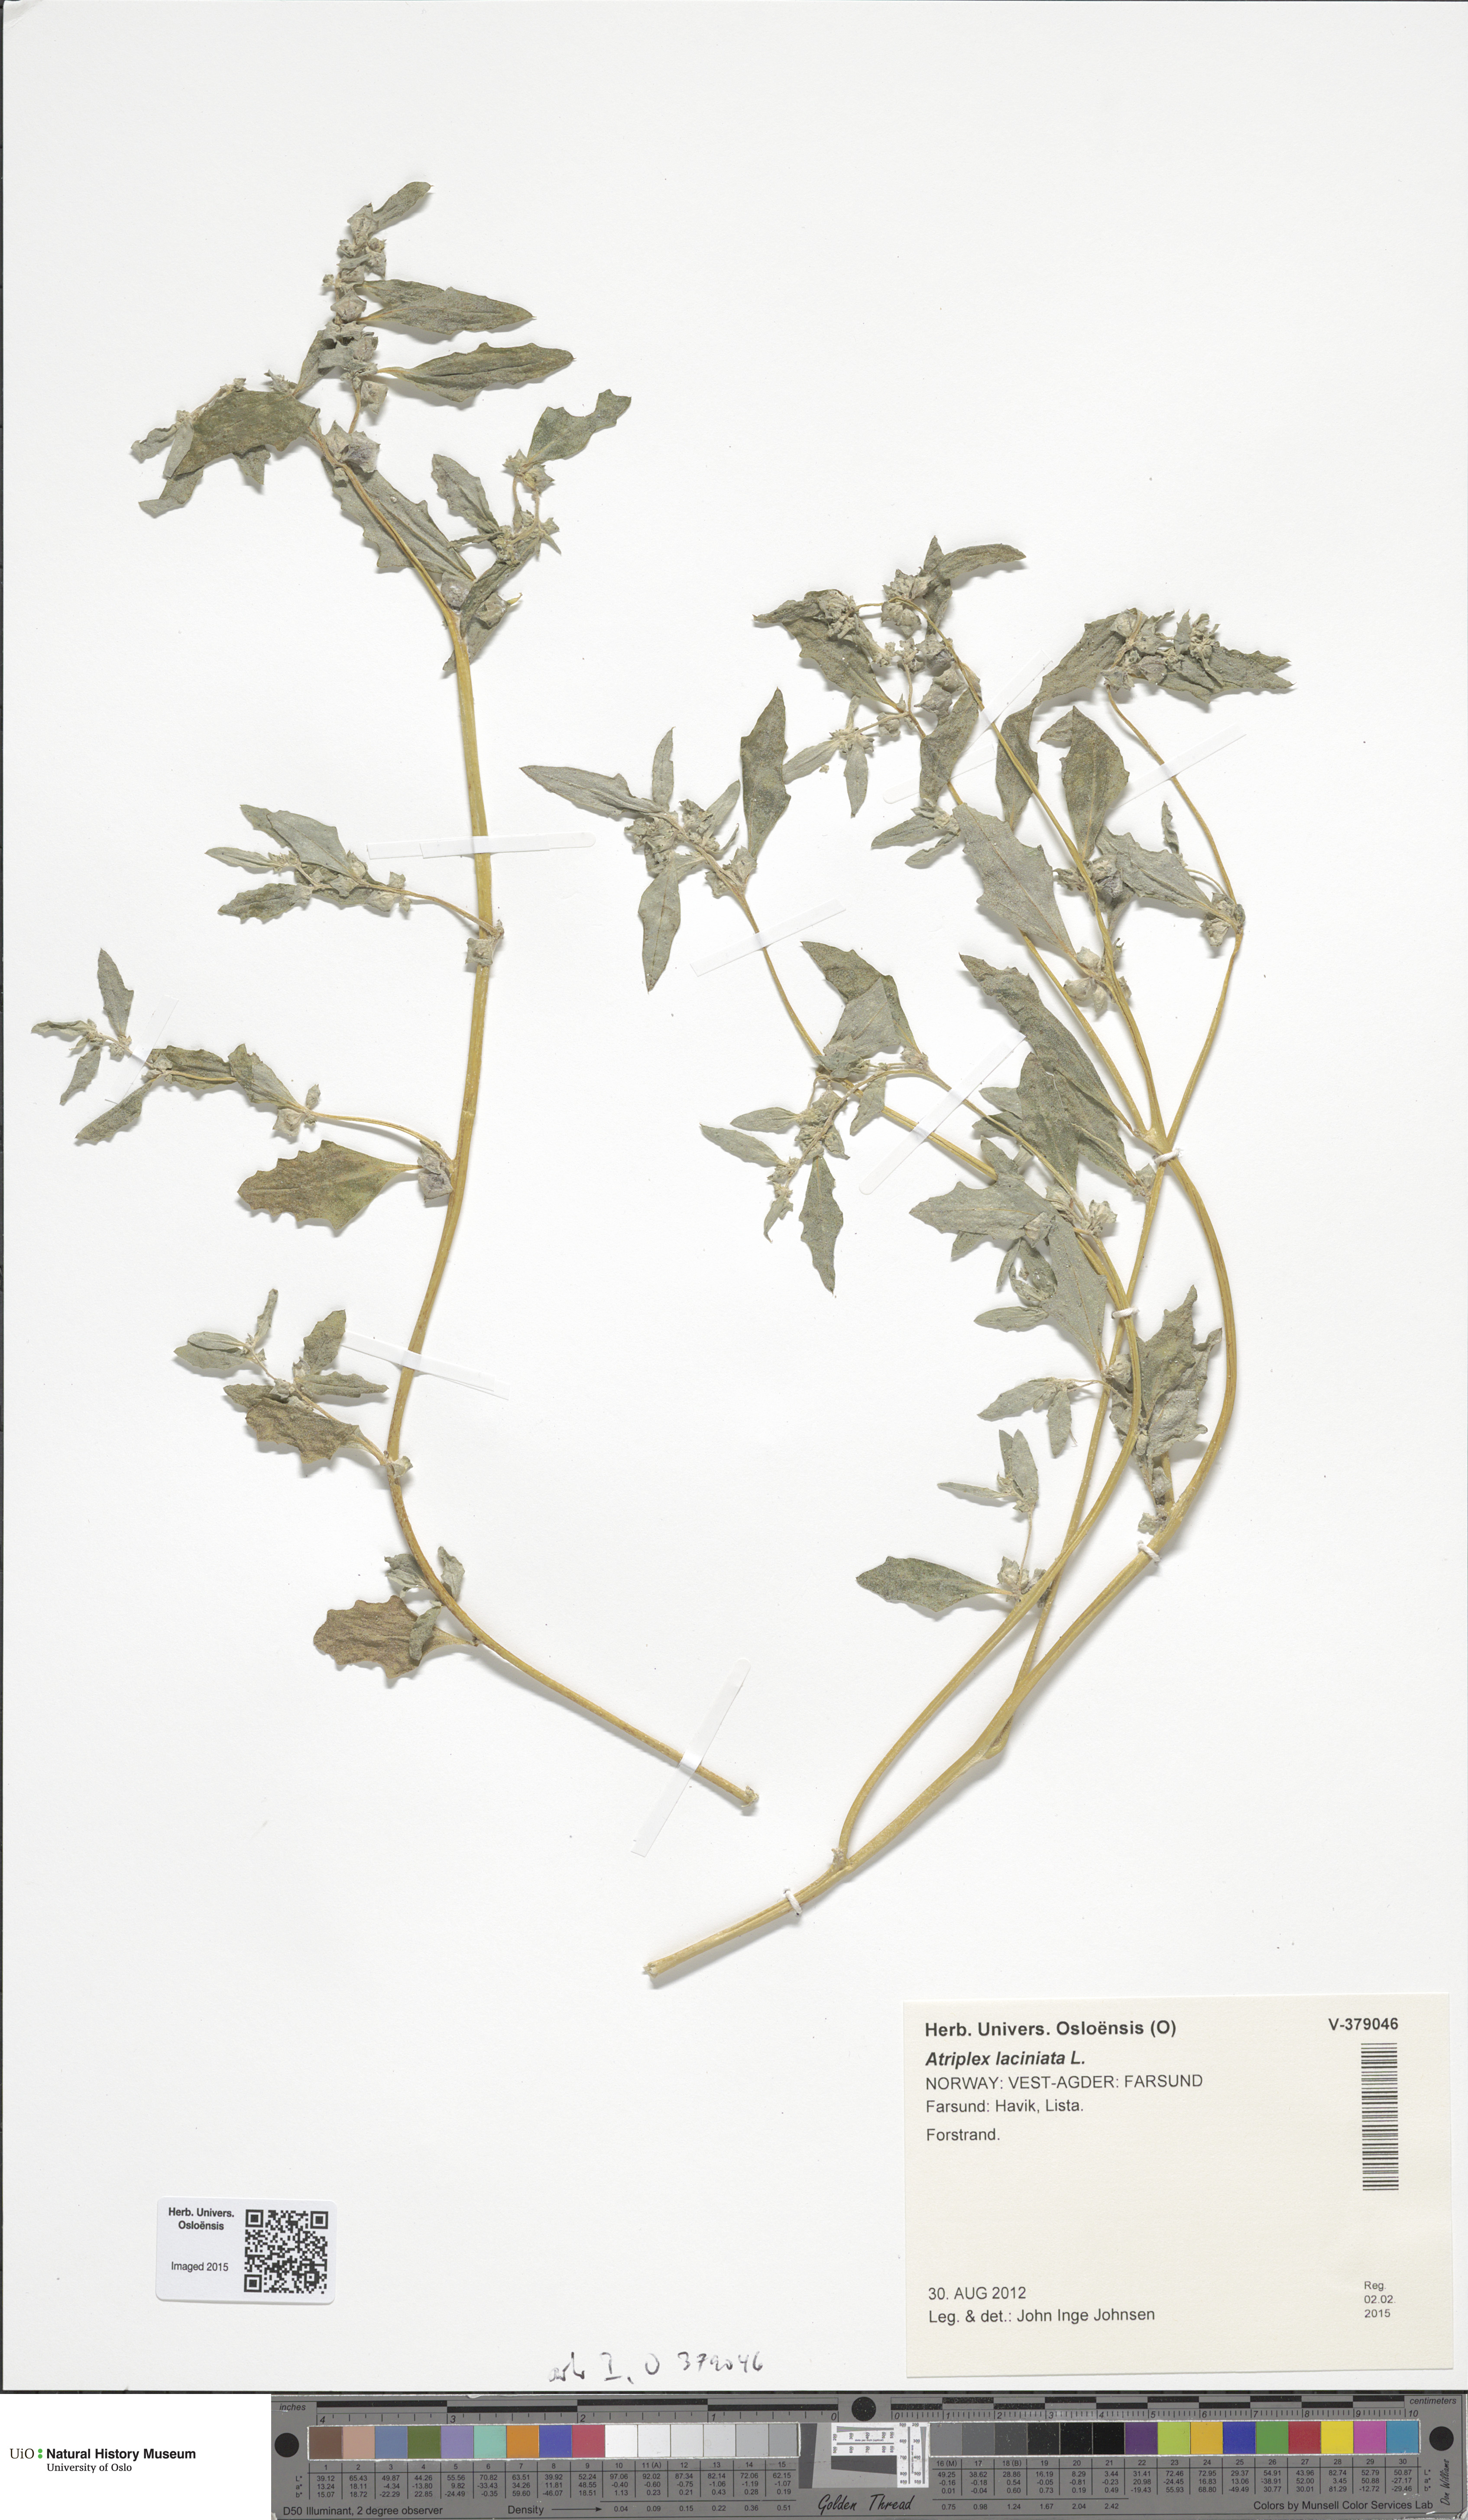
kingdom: Plantae
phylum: Tracheophyta
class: Magnoliopsida
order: Caryophyllales
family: Amaranthaceae
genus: Atriplex
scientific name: Atriplex laciniata
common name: Frosted orache
